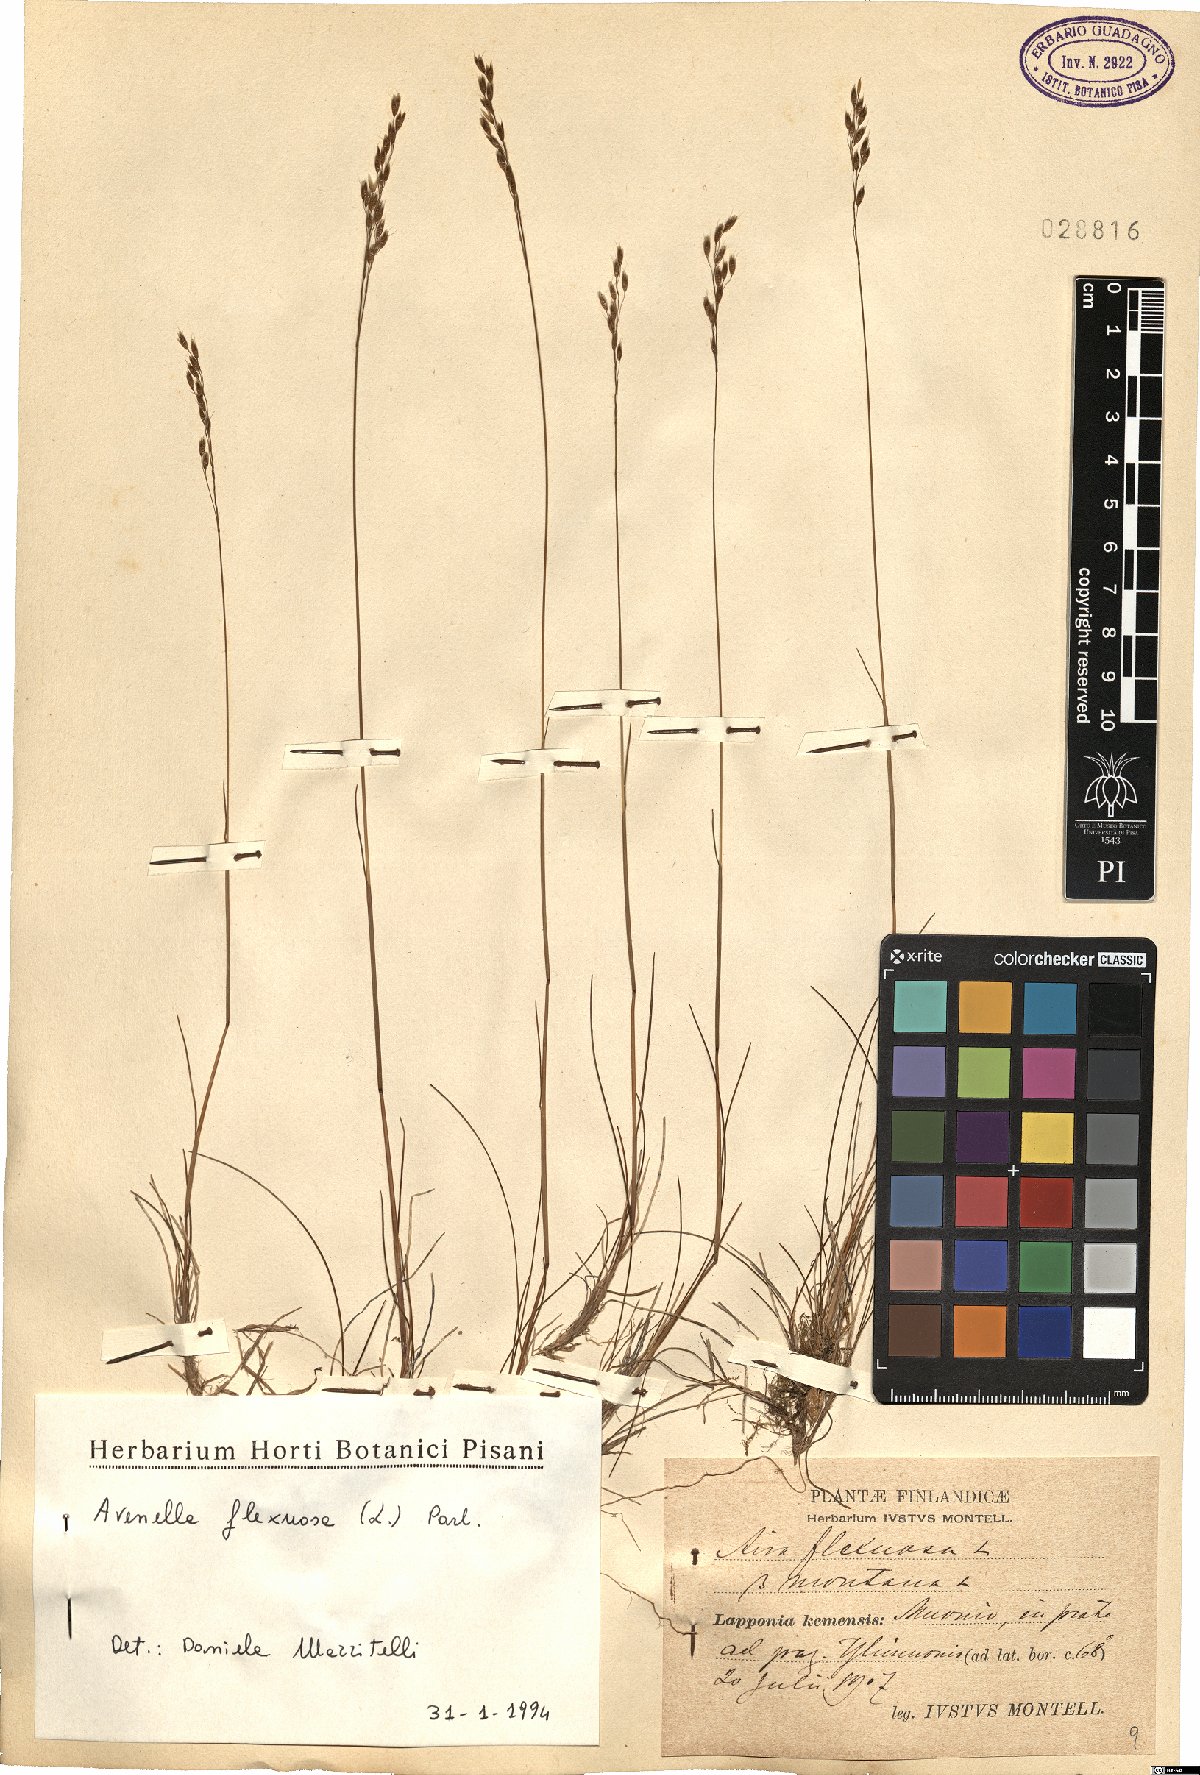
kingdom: Plantae
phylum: Tracheophyta
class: Liliopsida
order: Poales
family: Poaceae
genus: Avenella
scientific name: Avenella flexuosa
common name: Wavy hairgrass
